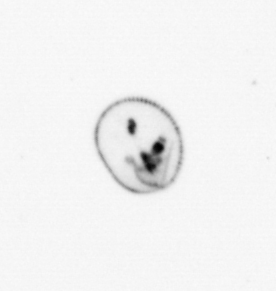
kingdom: Chromista
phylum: Myzozoa
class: Dinophyceae
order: Noctilucales
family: Noctilucaceae
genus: Noctiluca
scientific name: Noctiluca scintillans
